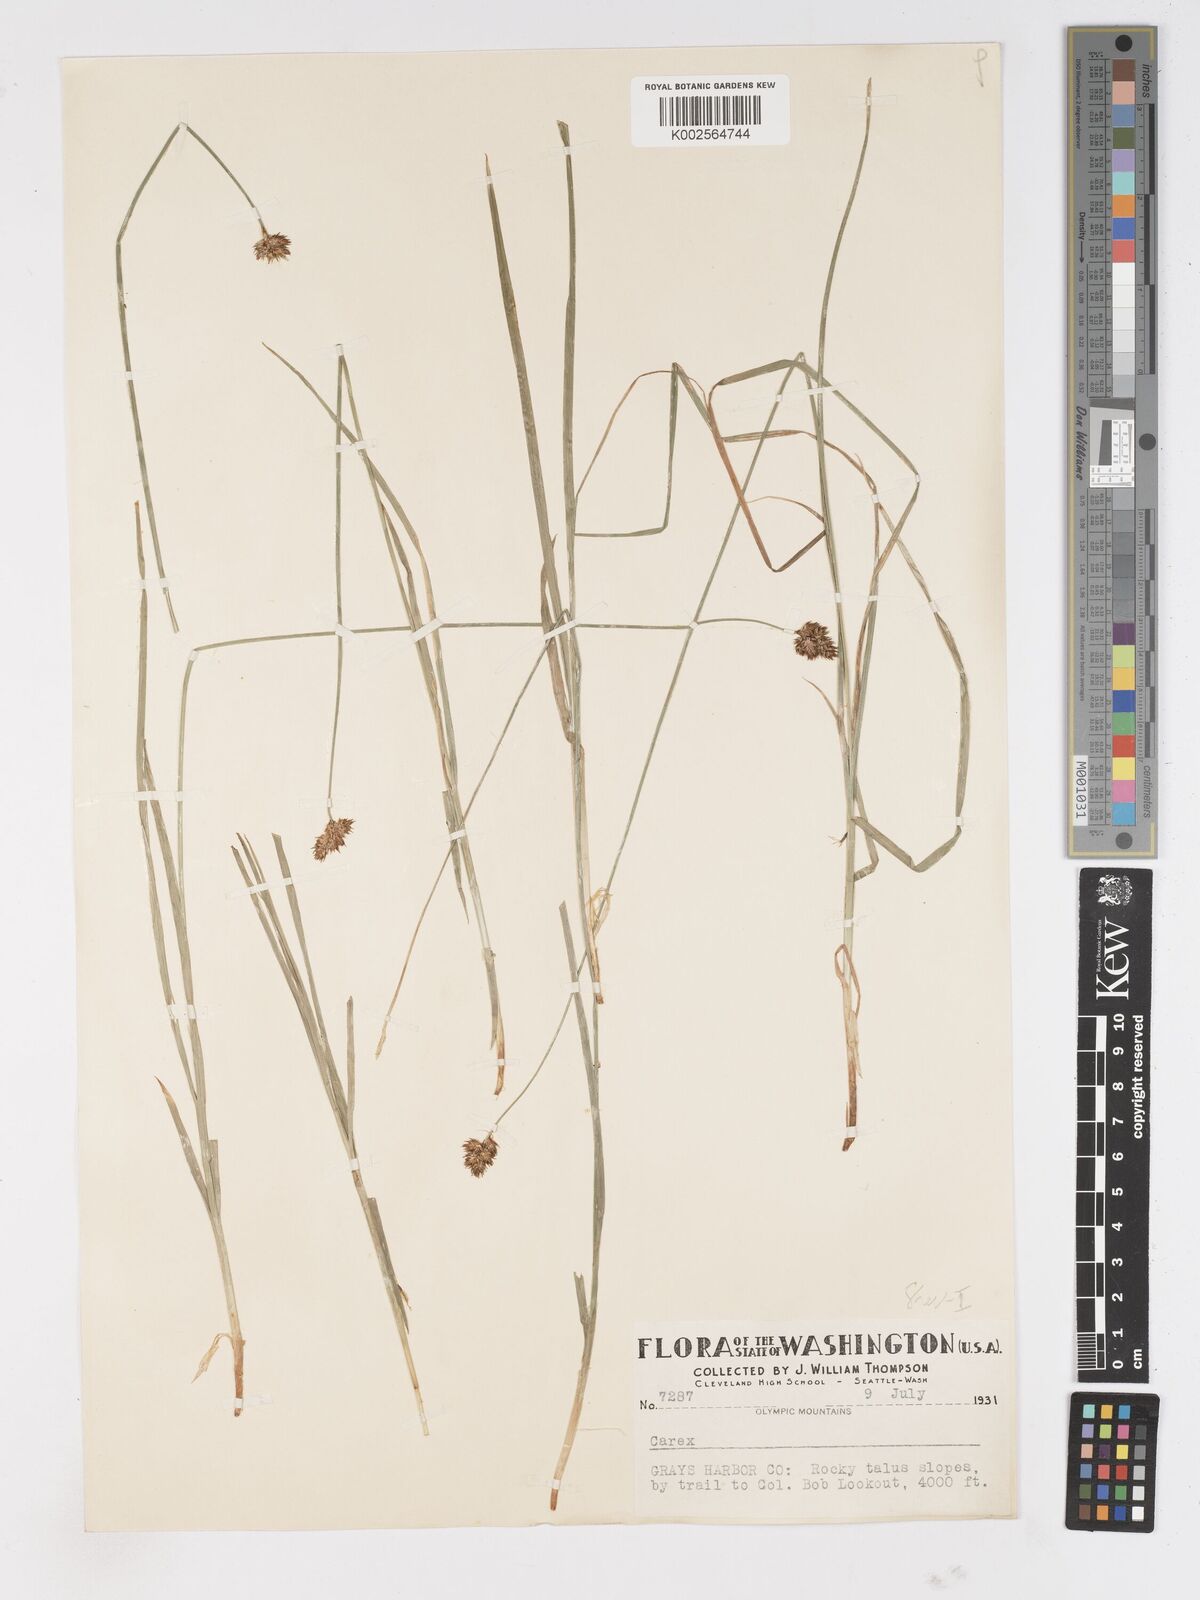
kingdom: Plantae
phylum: Tracheophyta
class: Liliopsida
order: Poales
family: Cyperaceae
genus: Carex
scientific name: Carex
